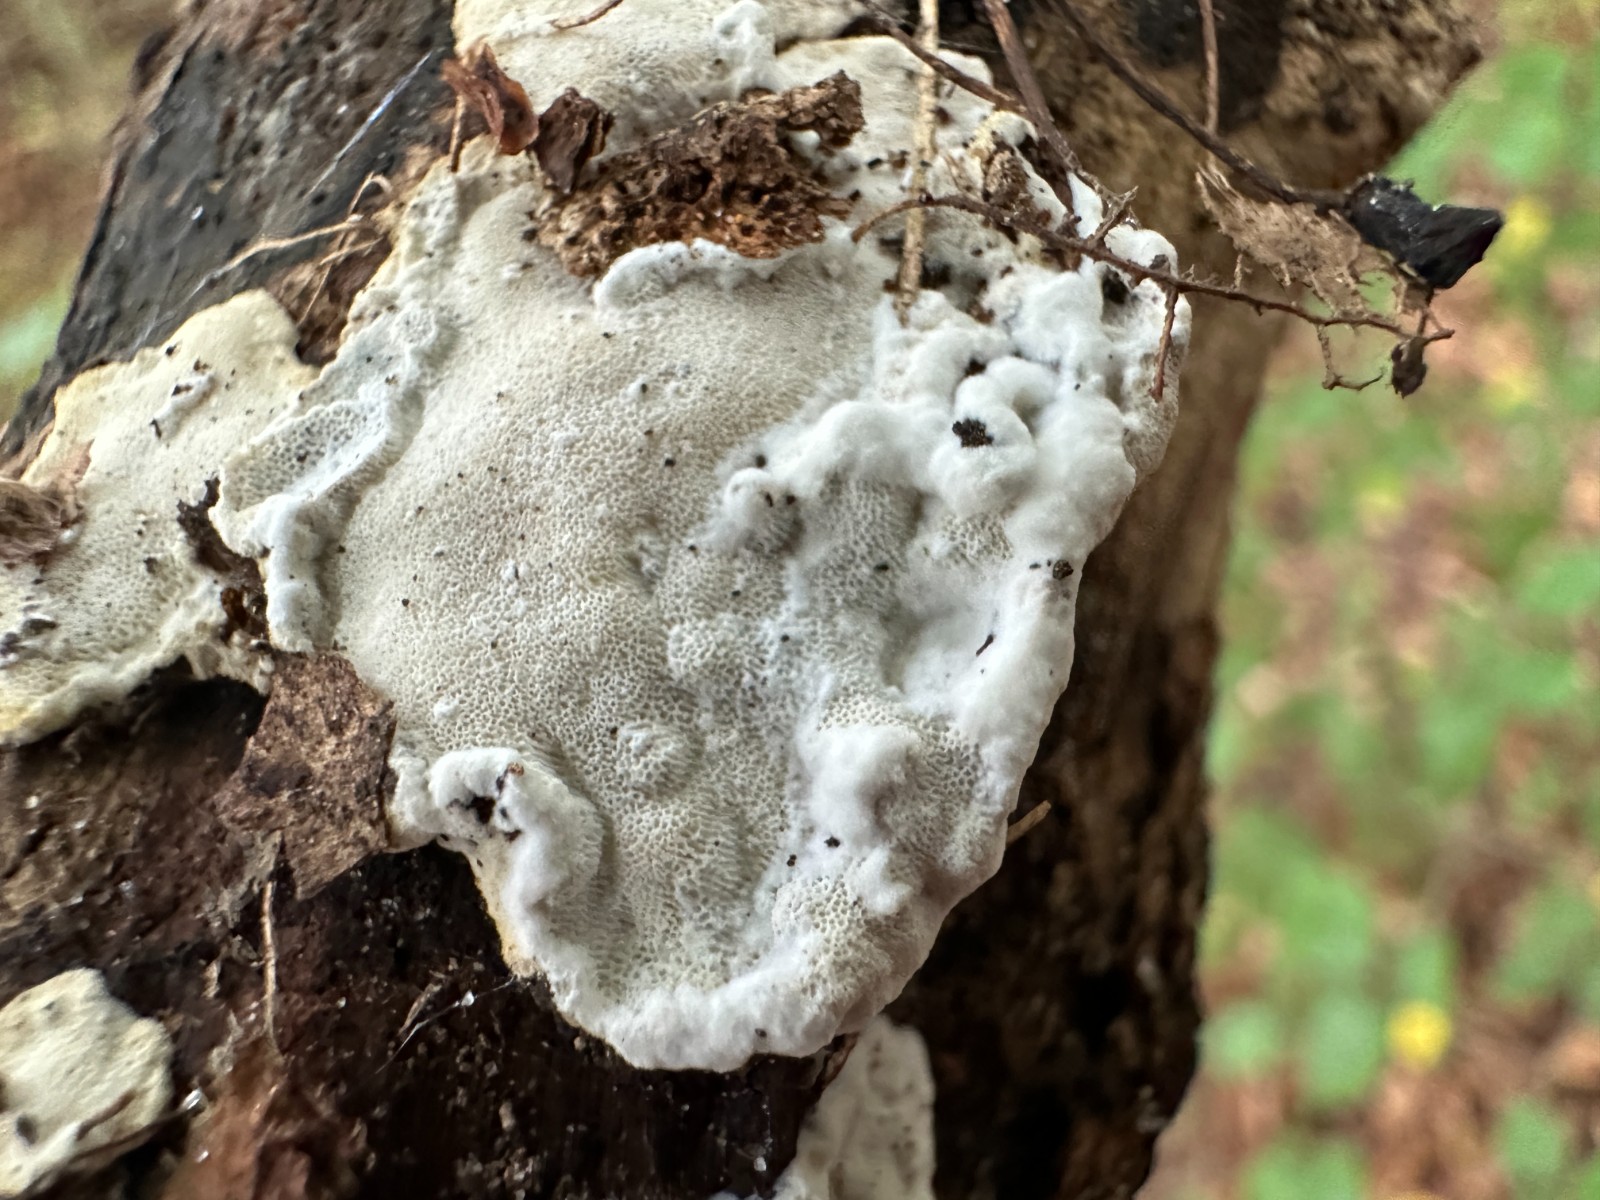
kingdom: Fungi
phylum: Basidiomycota
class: Agaricomycetes
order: Polyporales
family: Incrustoporiaceae
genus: Skeletocutis
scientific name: Skeletocutis nemoralis
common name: stor krystalporesvamp
